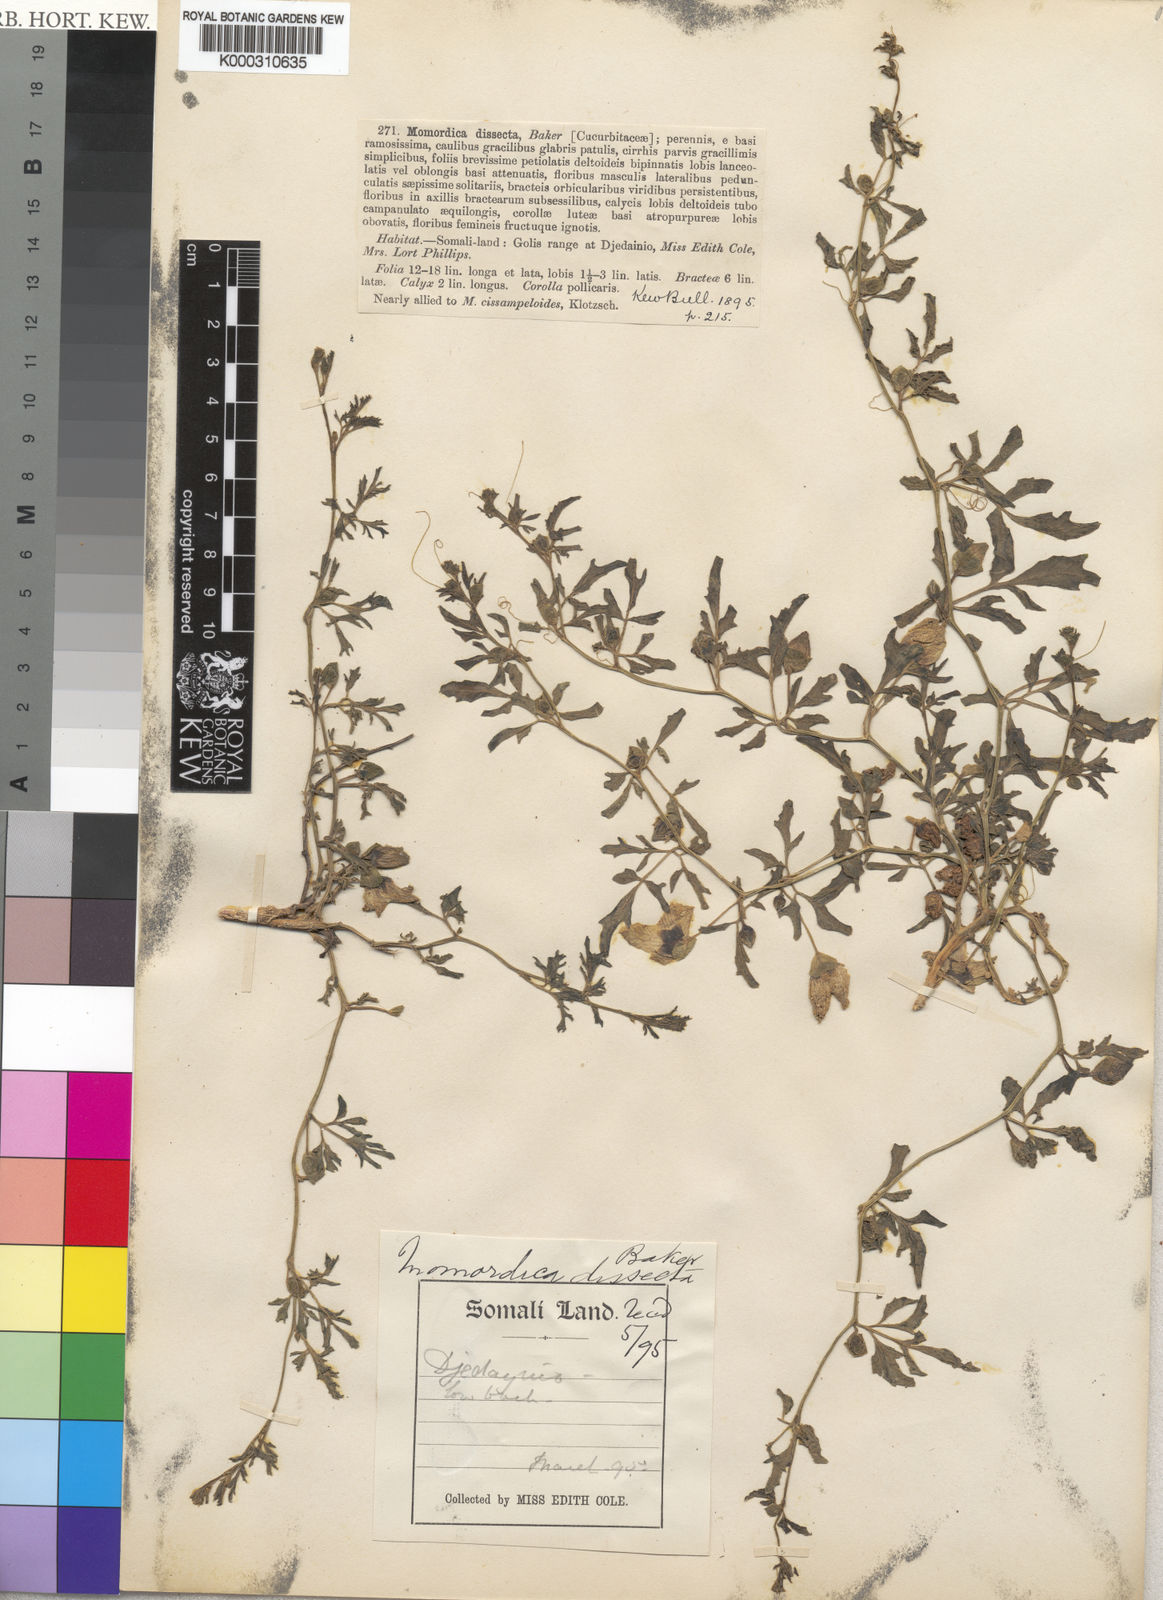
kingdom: Plantae
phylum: Tracheophyta
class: Magnoliopsida
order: Cucurbitales
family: Cucurbitaceae
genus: Momordica
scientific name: Momordica dissecta
